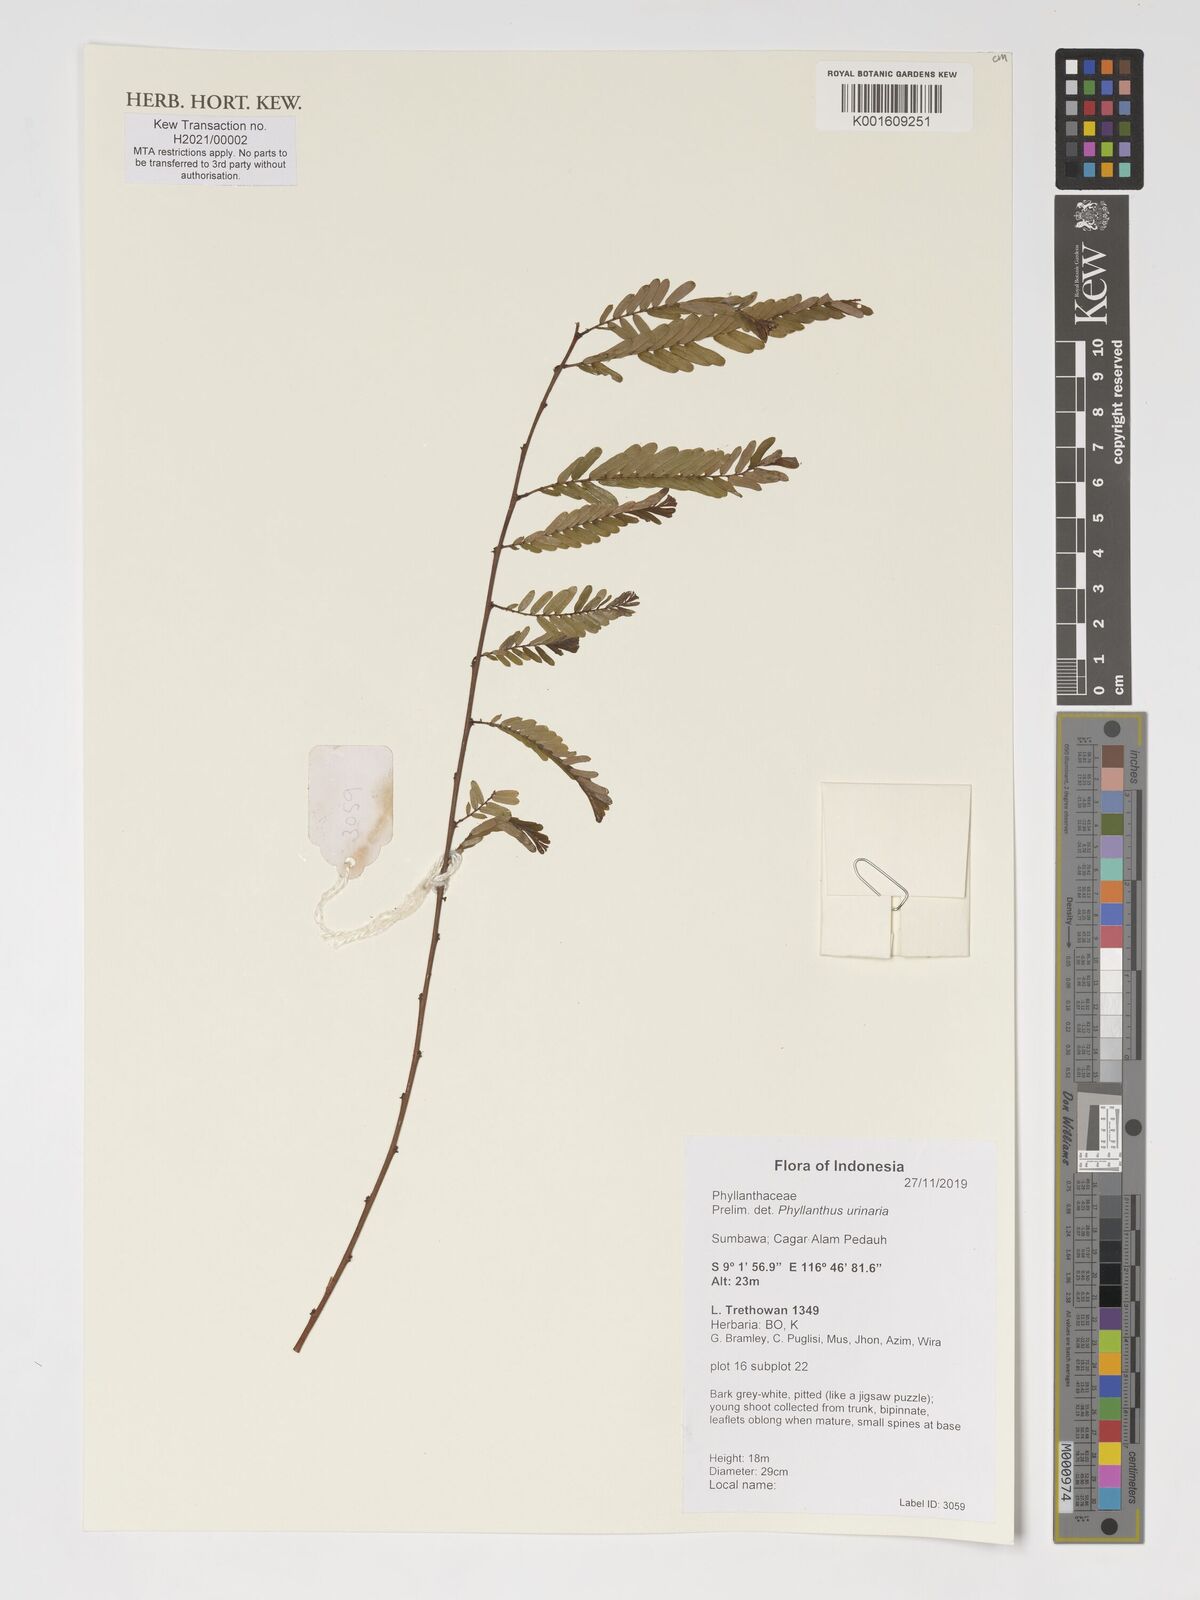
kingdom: Plantae
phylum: Tracheophyta
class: Magnoliopsida
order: Malpighiales
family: Phyllanthaceae
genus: Phyllanthus
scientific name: Phyllanthus urinaria
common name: Chamber bitter
